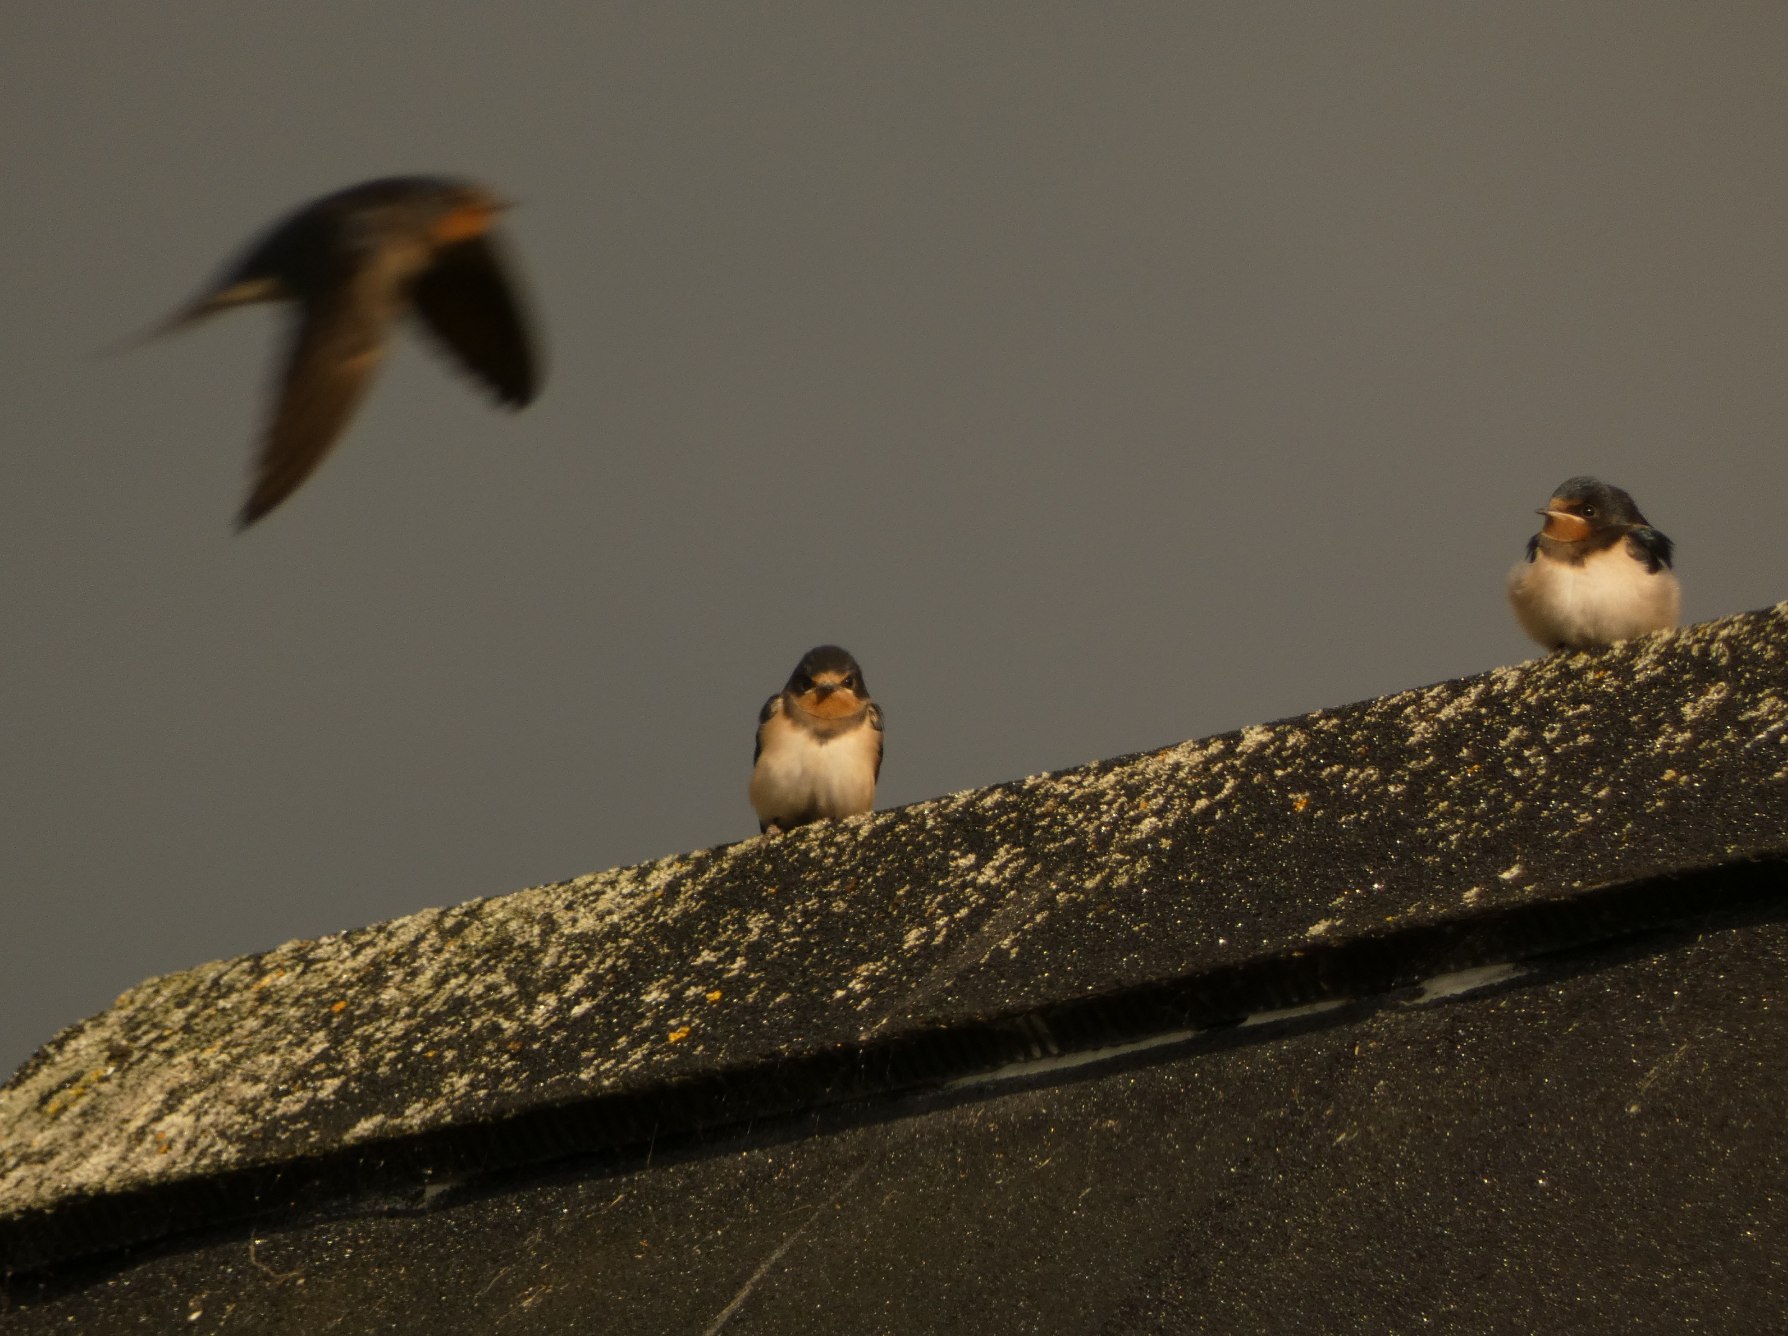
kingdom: Animalia
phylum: Chordata
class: Aves
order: Passeriformes
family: Hirundinidae
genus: Hirundo
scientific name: Hirundo rustica
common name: Landsvale
